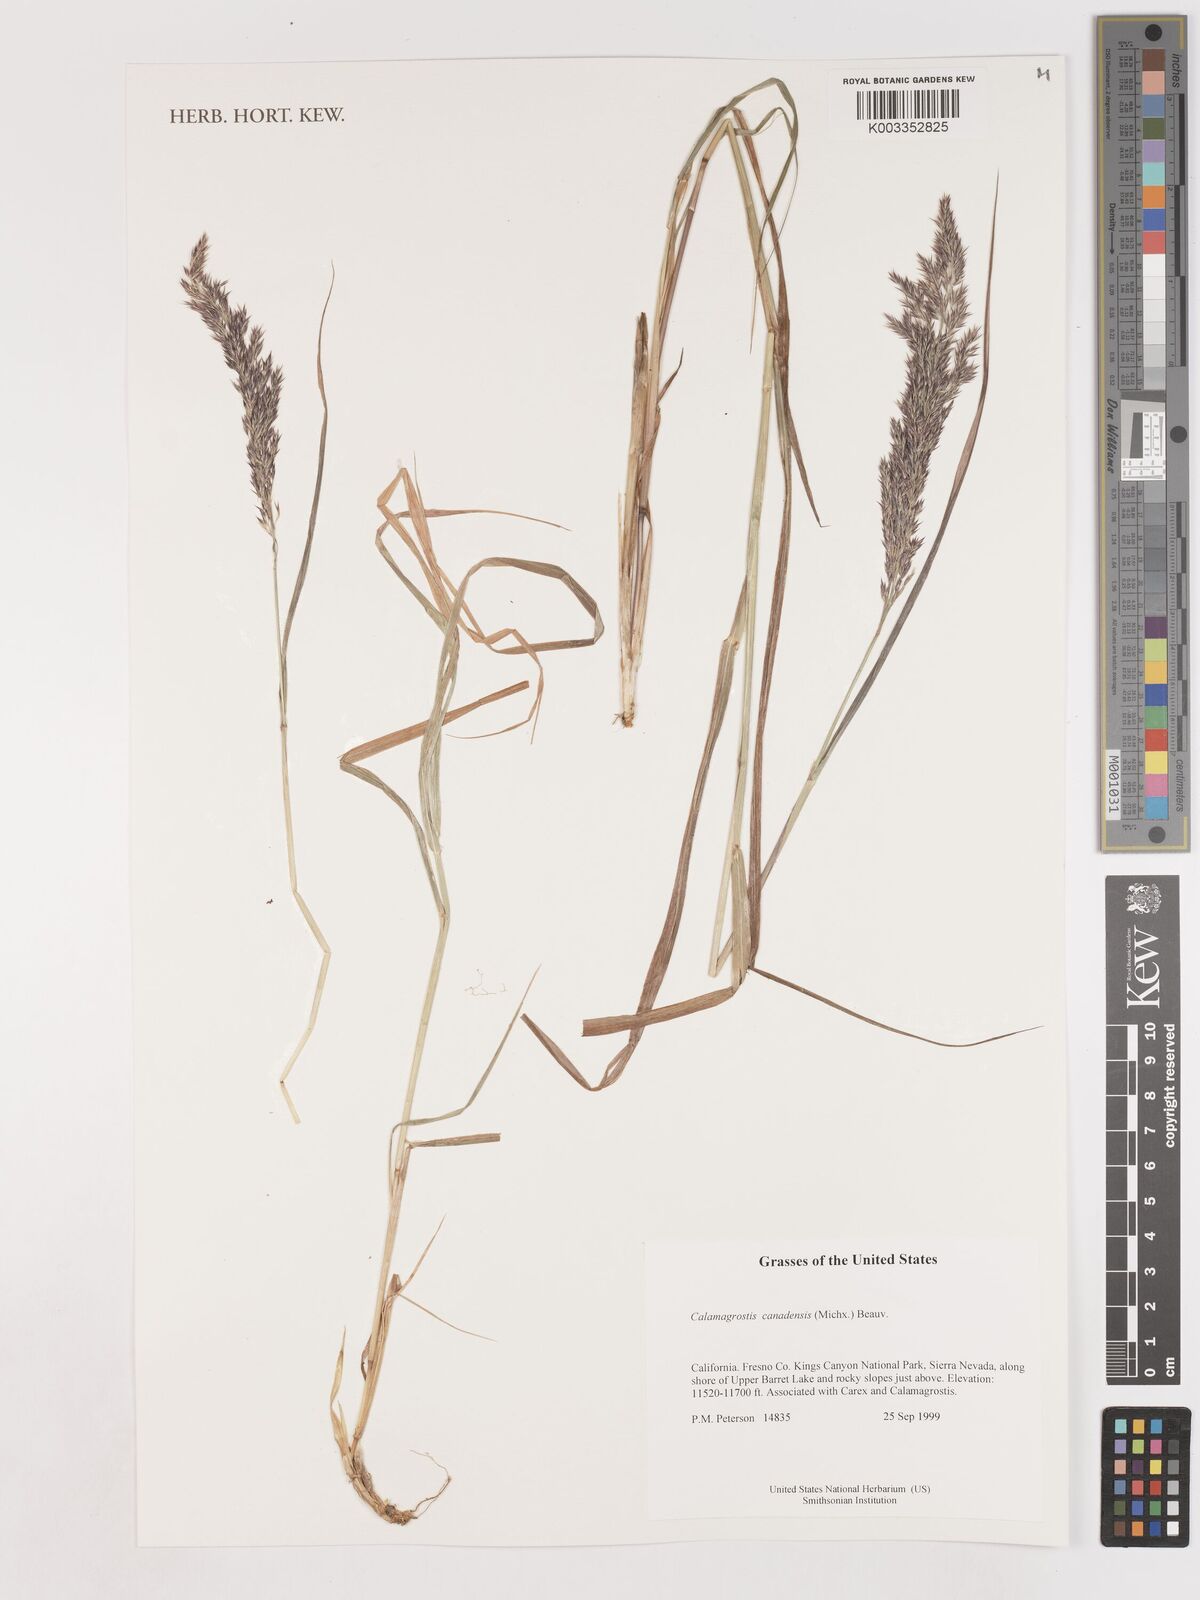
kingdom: Plantae
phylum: Tracheophyta
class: Liliopsida
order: Poales
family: Poaceae
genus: Calamagrostis
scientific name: Calamagrostis canadensis
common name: Canada bluejoint
